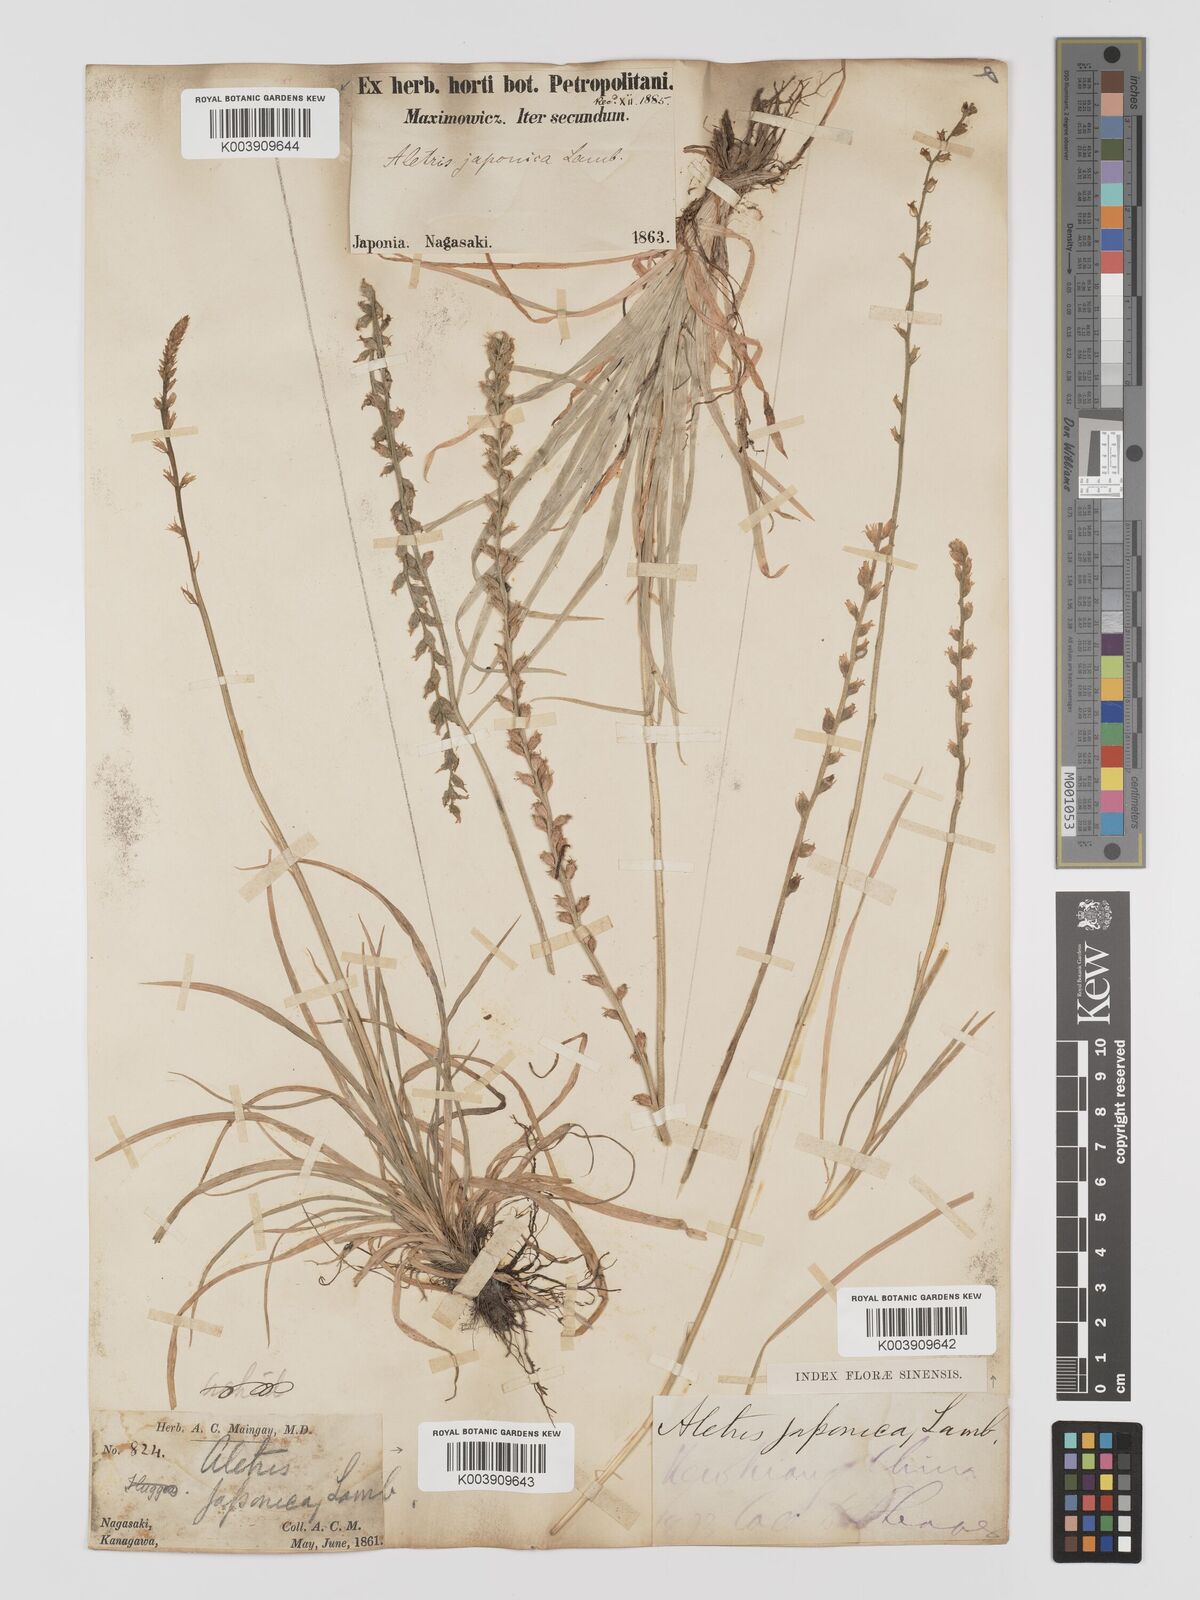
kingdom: Plantae
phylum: Tracheophyta
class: Liliopsida
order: Dioscoreales
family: Nartheciaceae
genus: Aletris
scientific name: Aletris spicata
